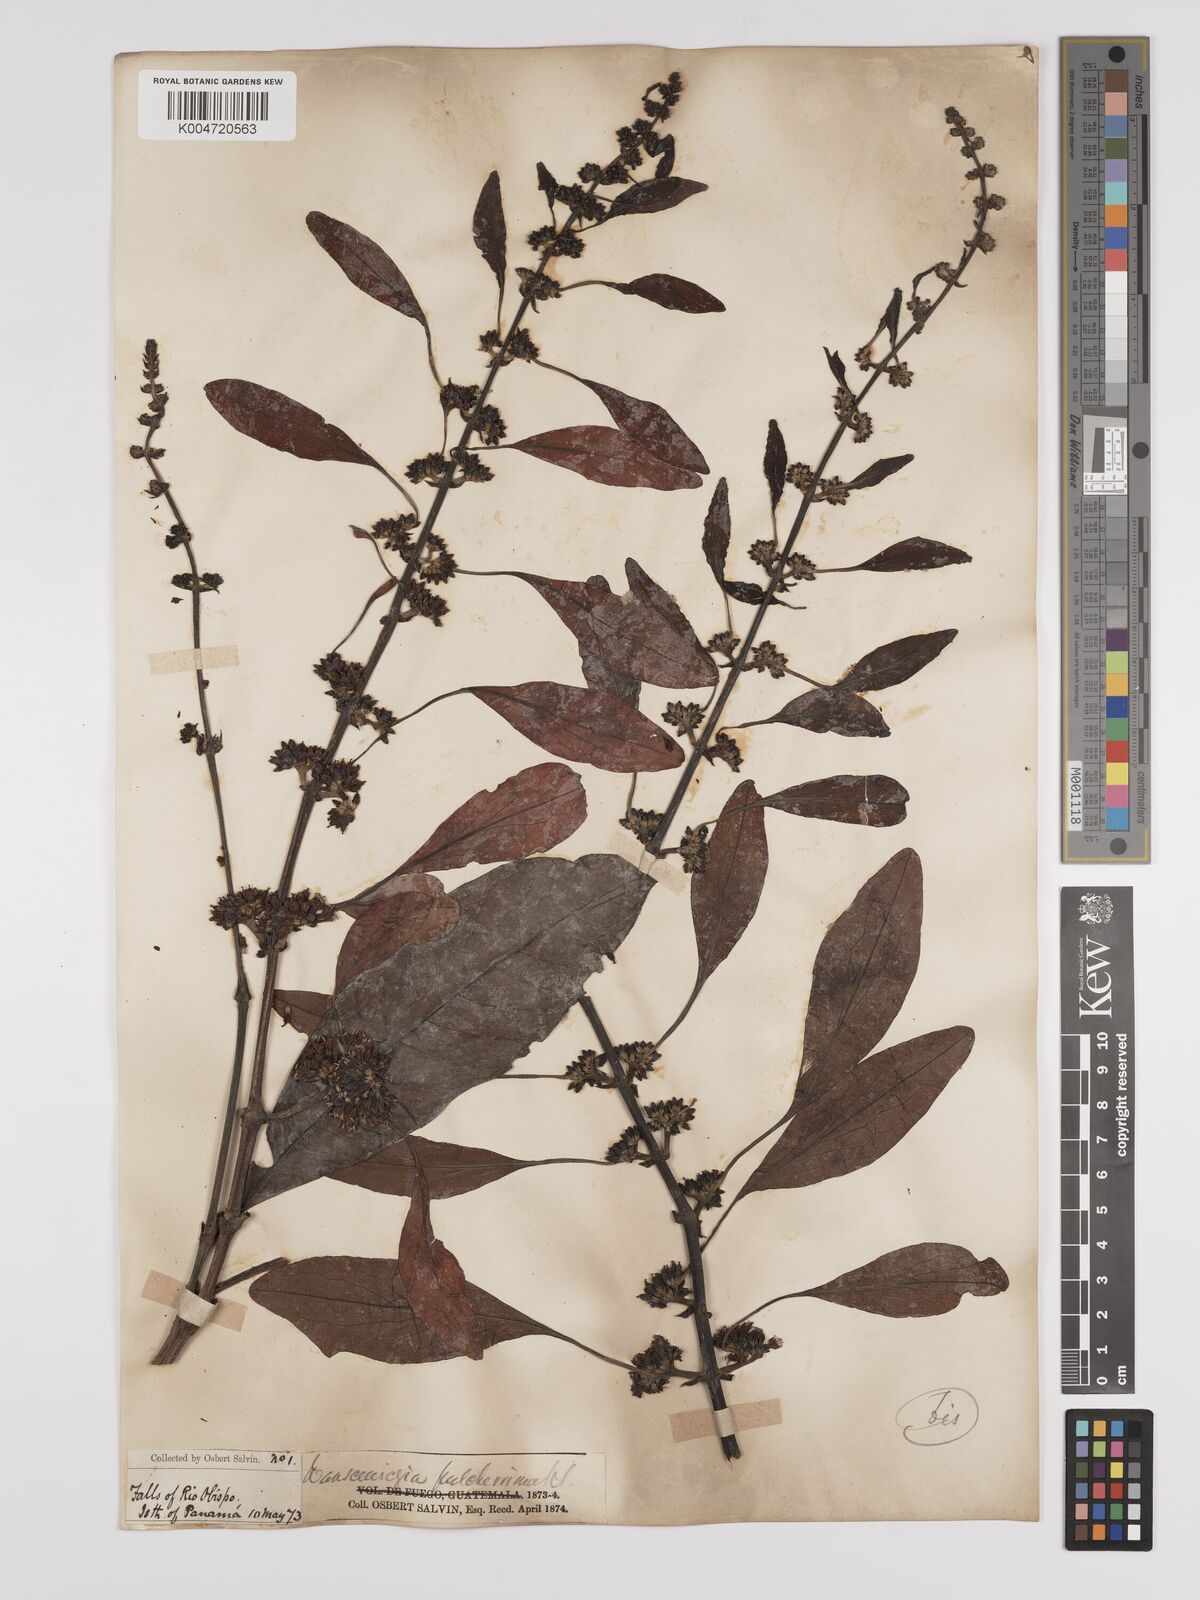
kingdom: Plantae
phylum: Tracheophyta
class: Magnoliopsida
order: Gentianales
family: Rubiaceae
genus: Warszewiczia
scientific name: Warszewiczia coccinea
